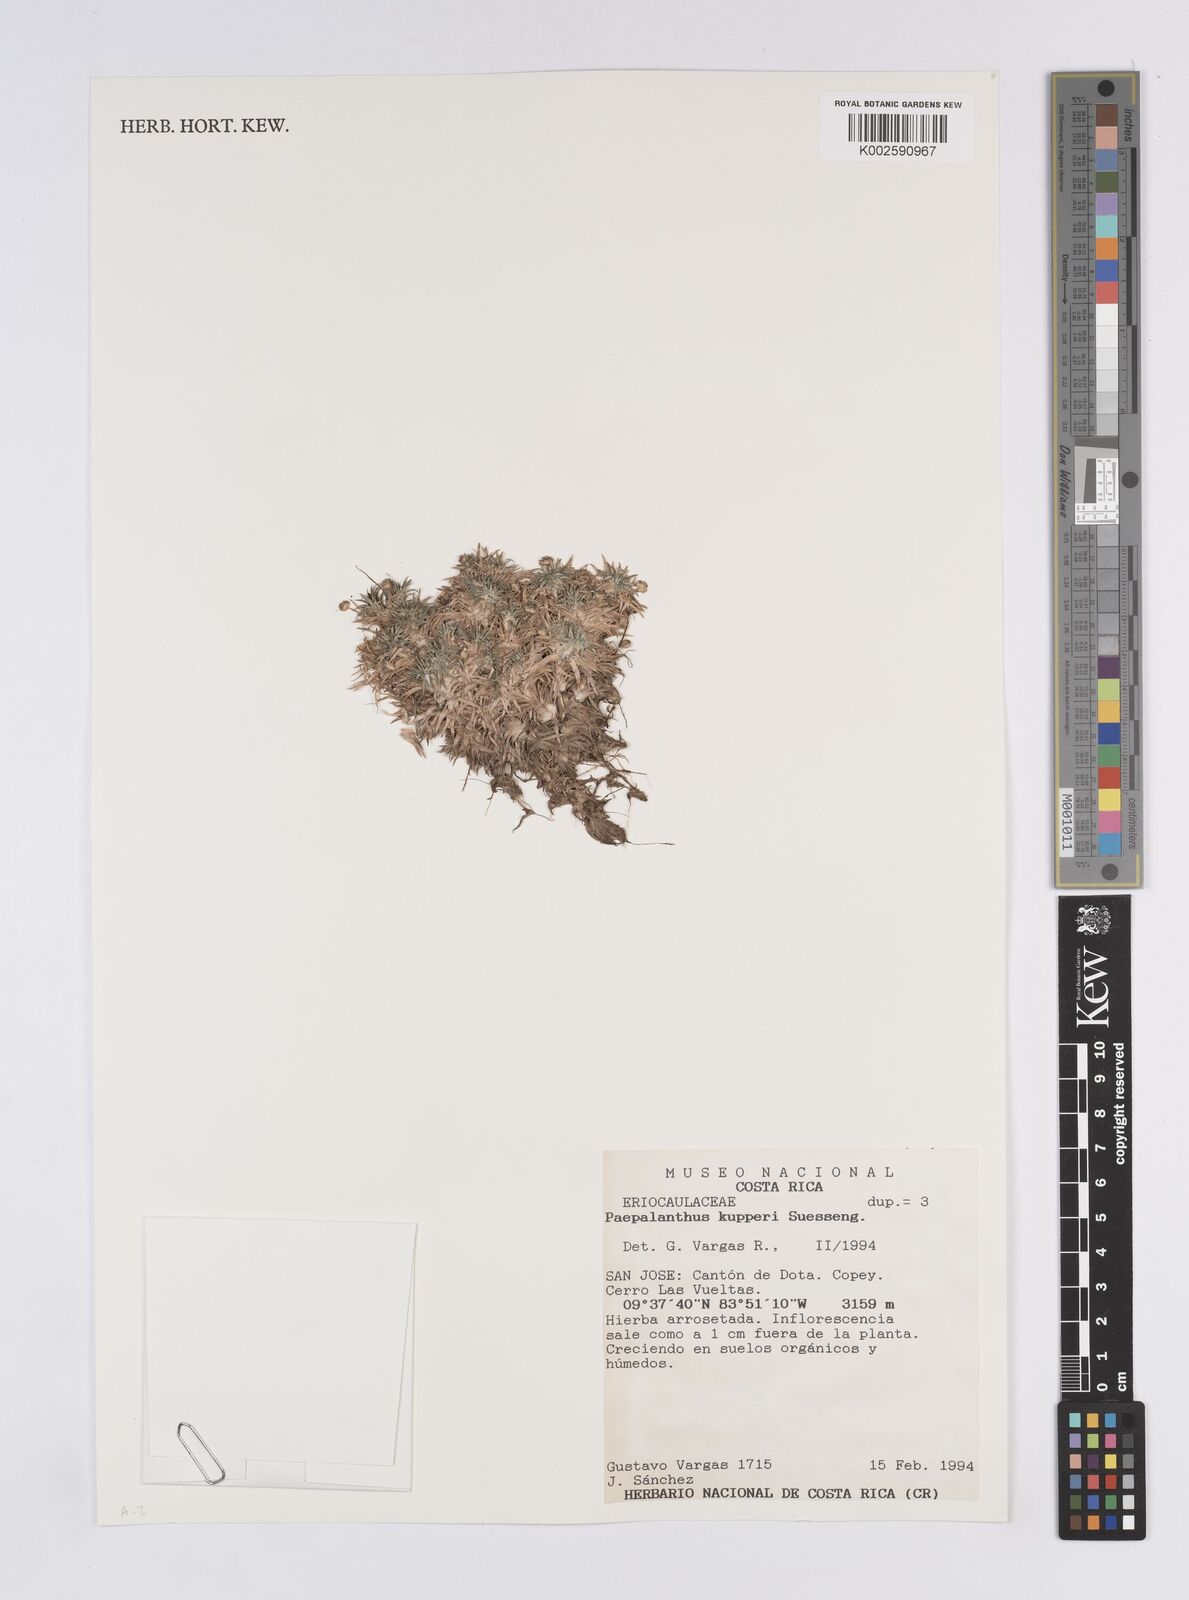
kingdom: Plantae
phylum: Tracheophyta
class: Liliopsida
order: Poales
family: Eriocaulaceae
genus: Paepalanthus
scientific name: Paepalanthus pilosus
